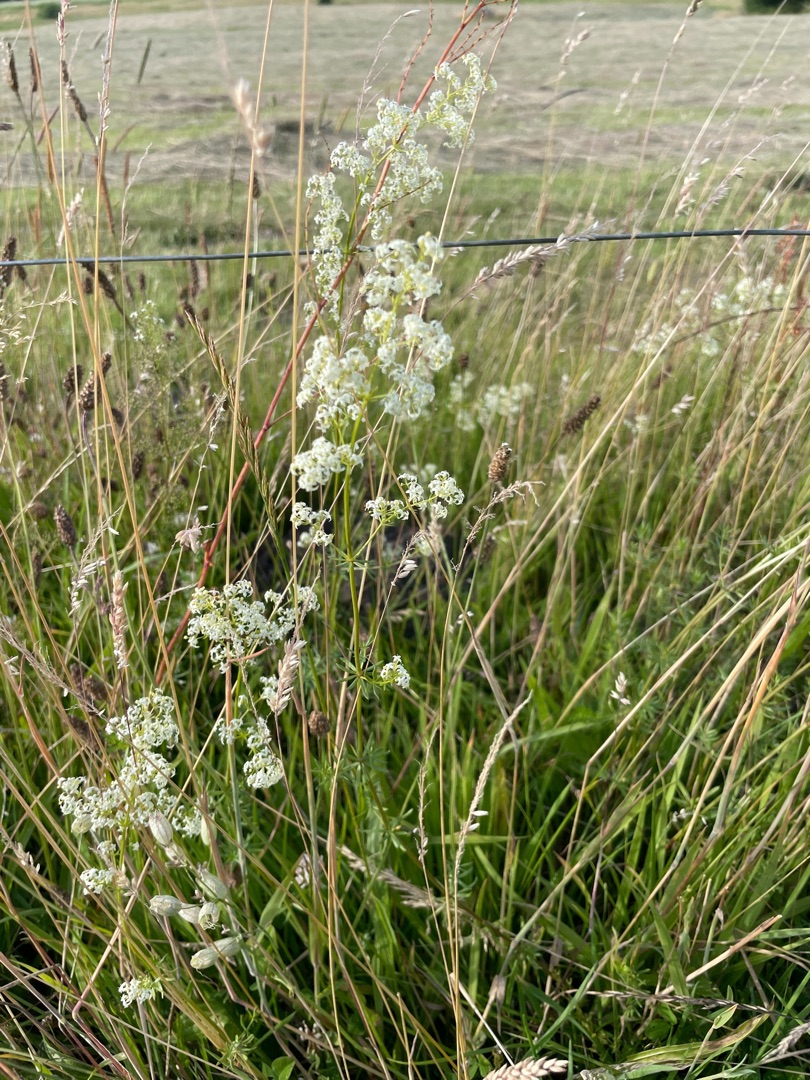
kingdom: Plantae
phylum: Tracheophyta
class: Magnoliopsida
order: Gentianales
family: Rubiaceae
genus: Galium
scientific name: Galium mollugo
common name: Hvid snerre
